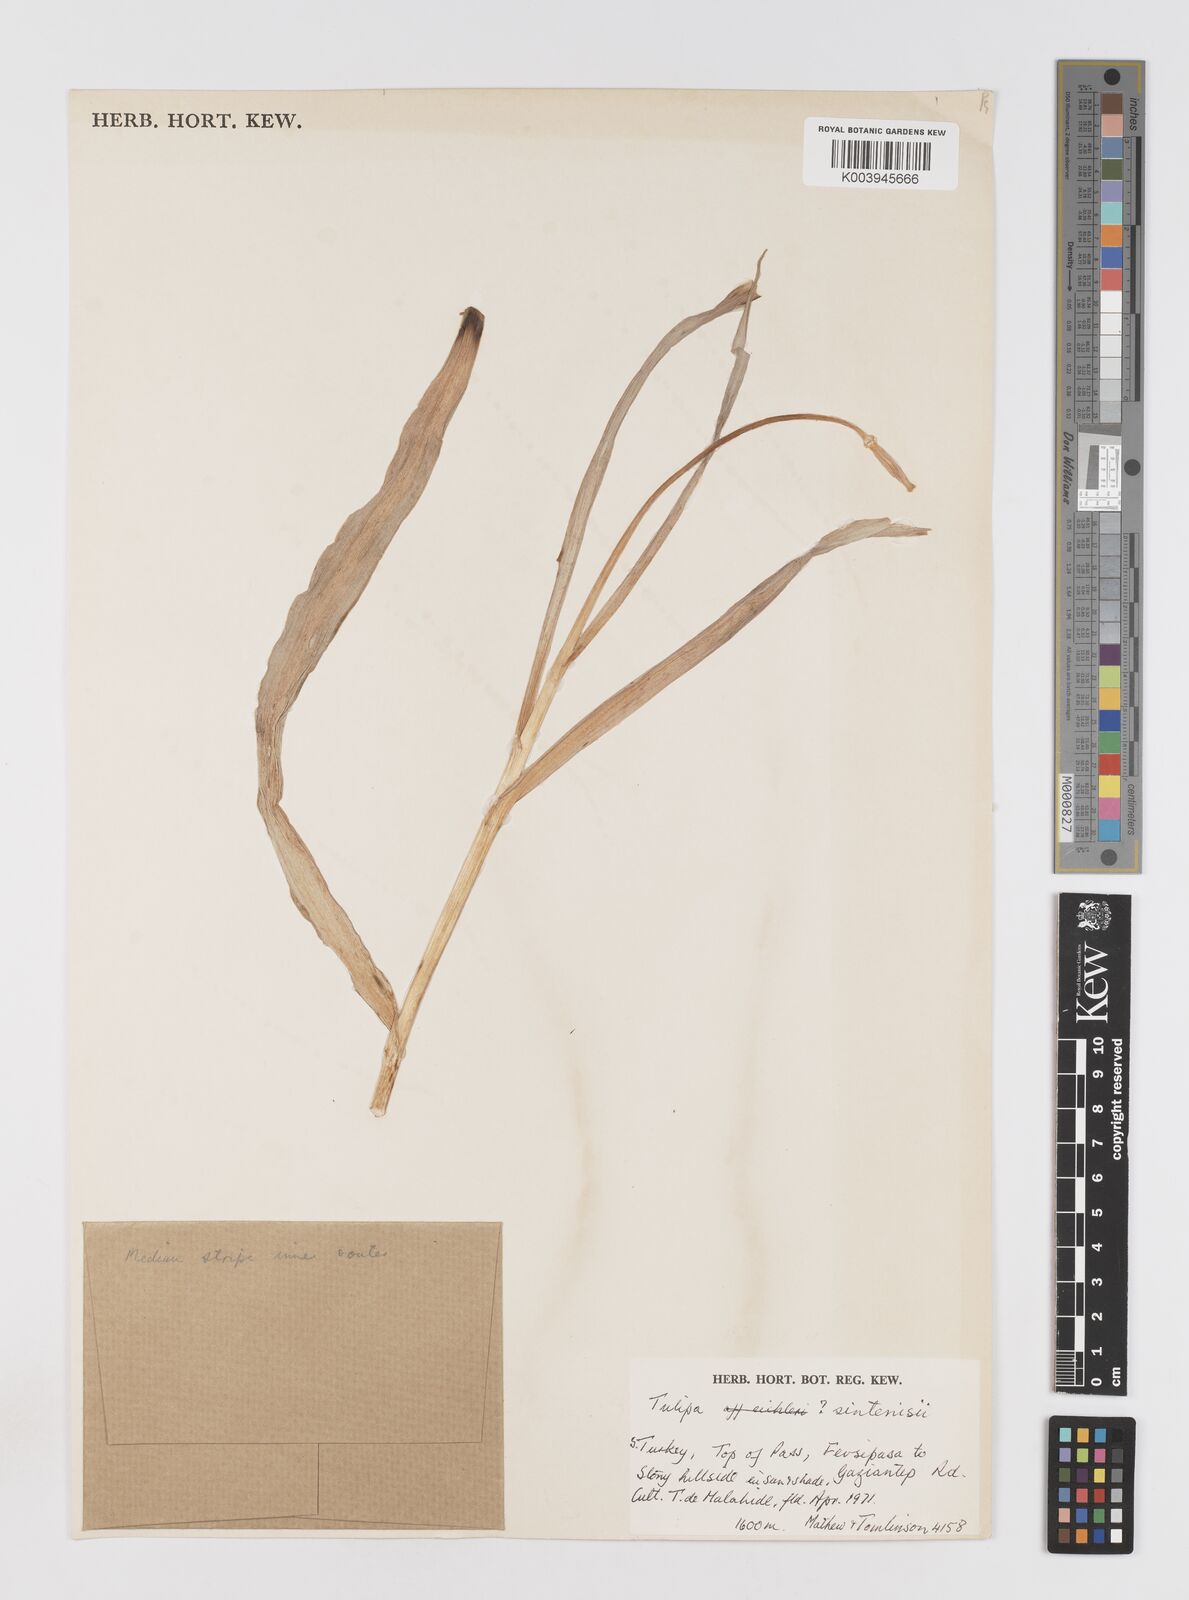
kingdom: Plantae
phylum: Tracheophyta
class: Liliopsida
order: Liliales
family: Liliaceae
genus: Tulipa
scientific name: Tulipa aleppensis
